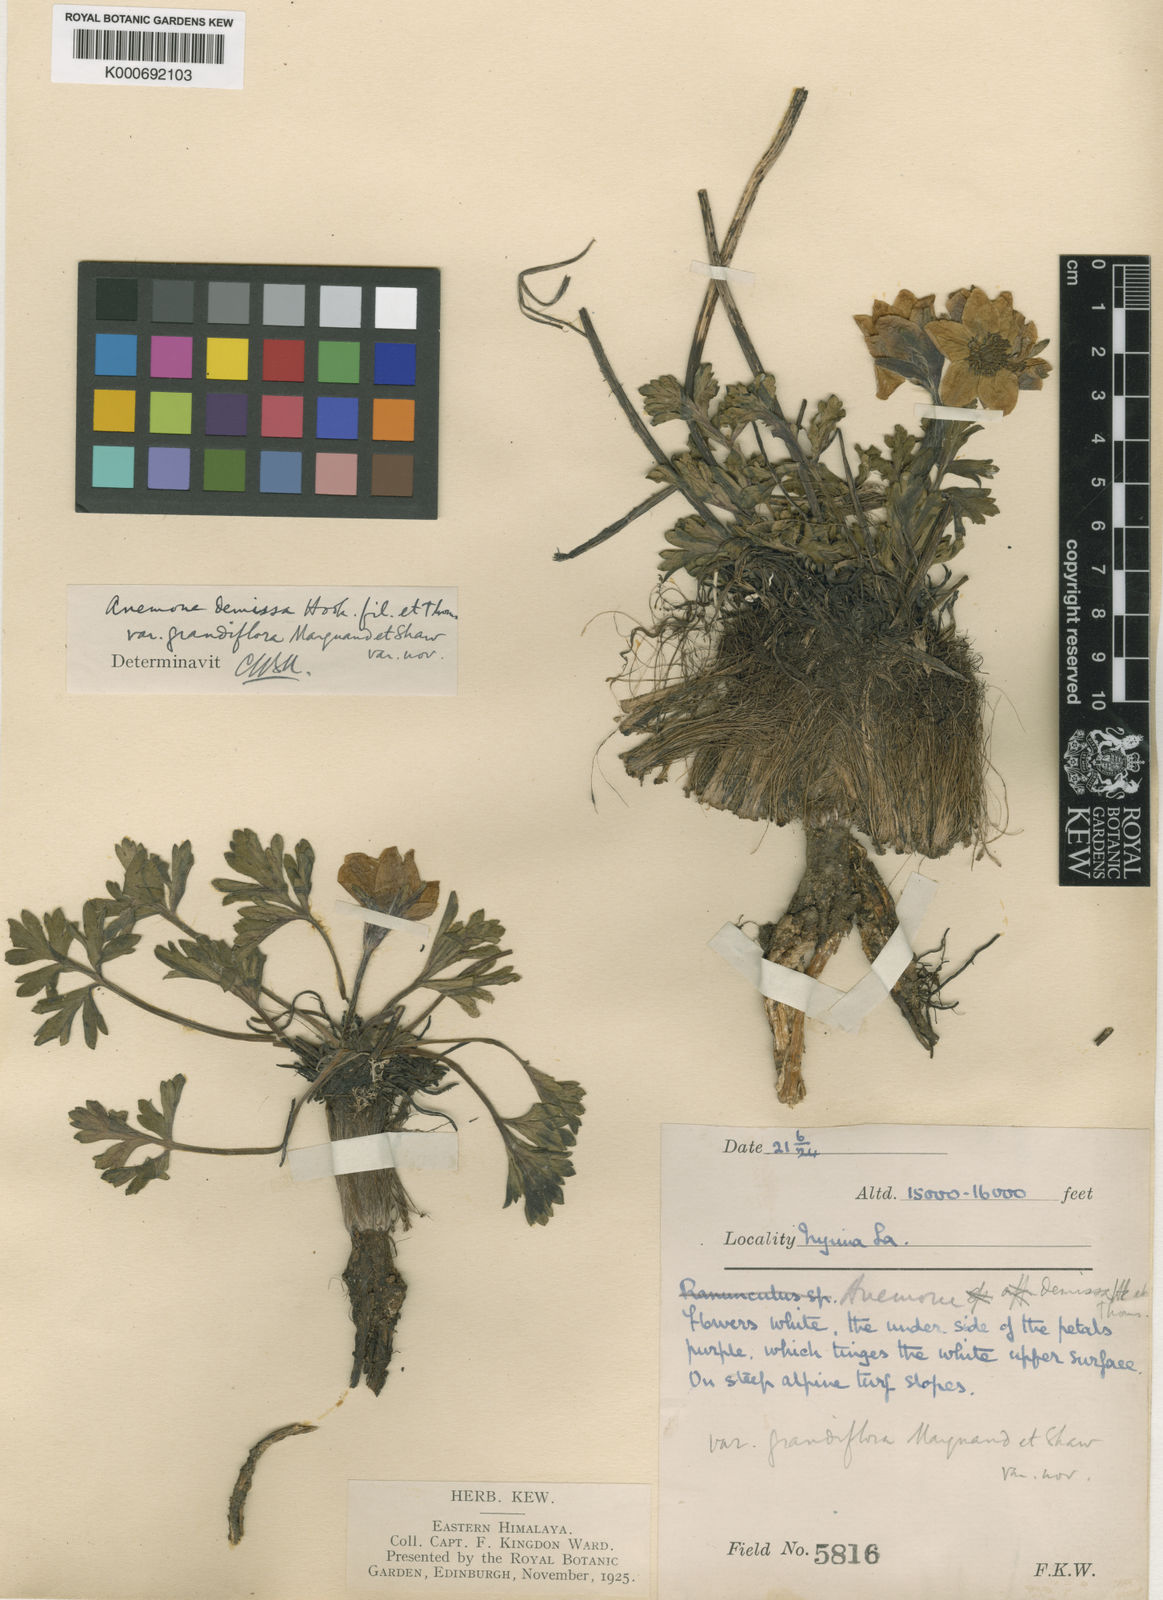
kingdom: Plantae
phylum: Tracheophyta
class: Magnoliopsida
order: Ranunculales
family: Ranunculaceae
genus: Anemonastrum
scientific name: Anemonastrum demissum
